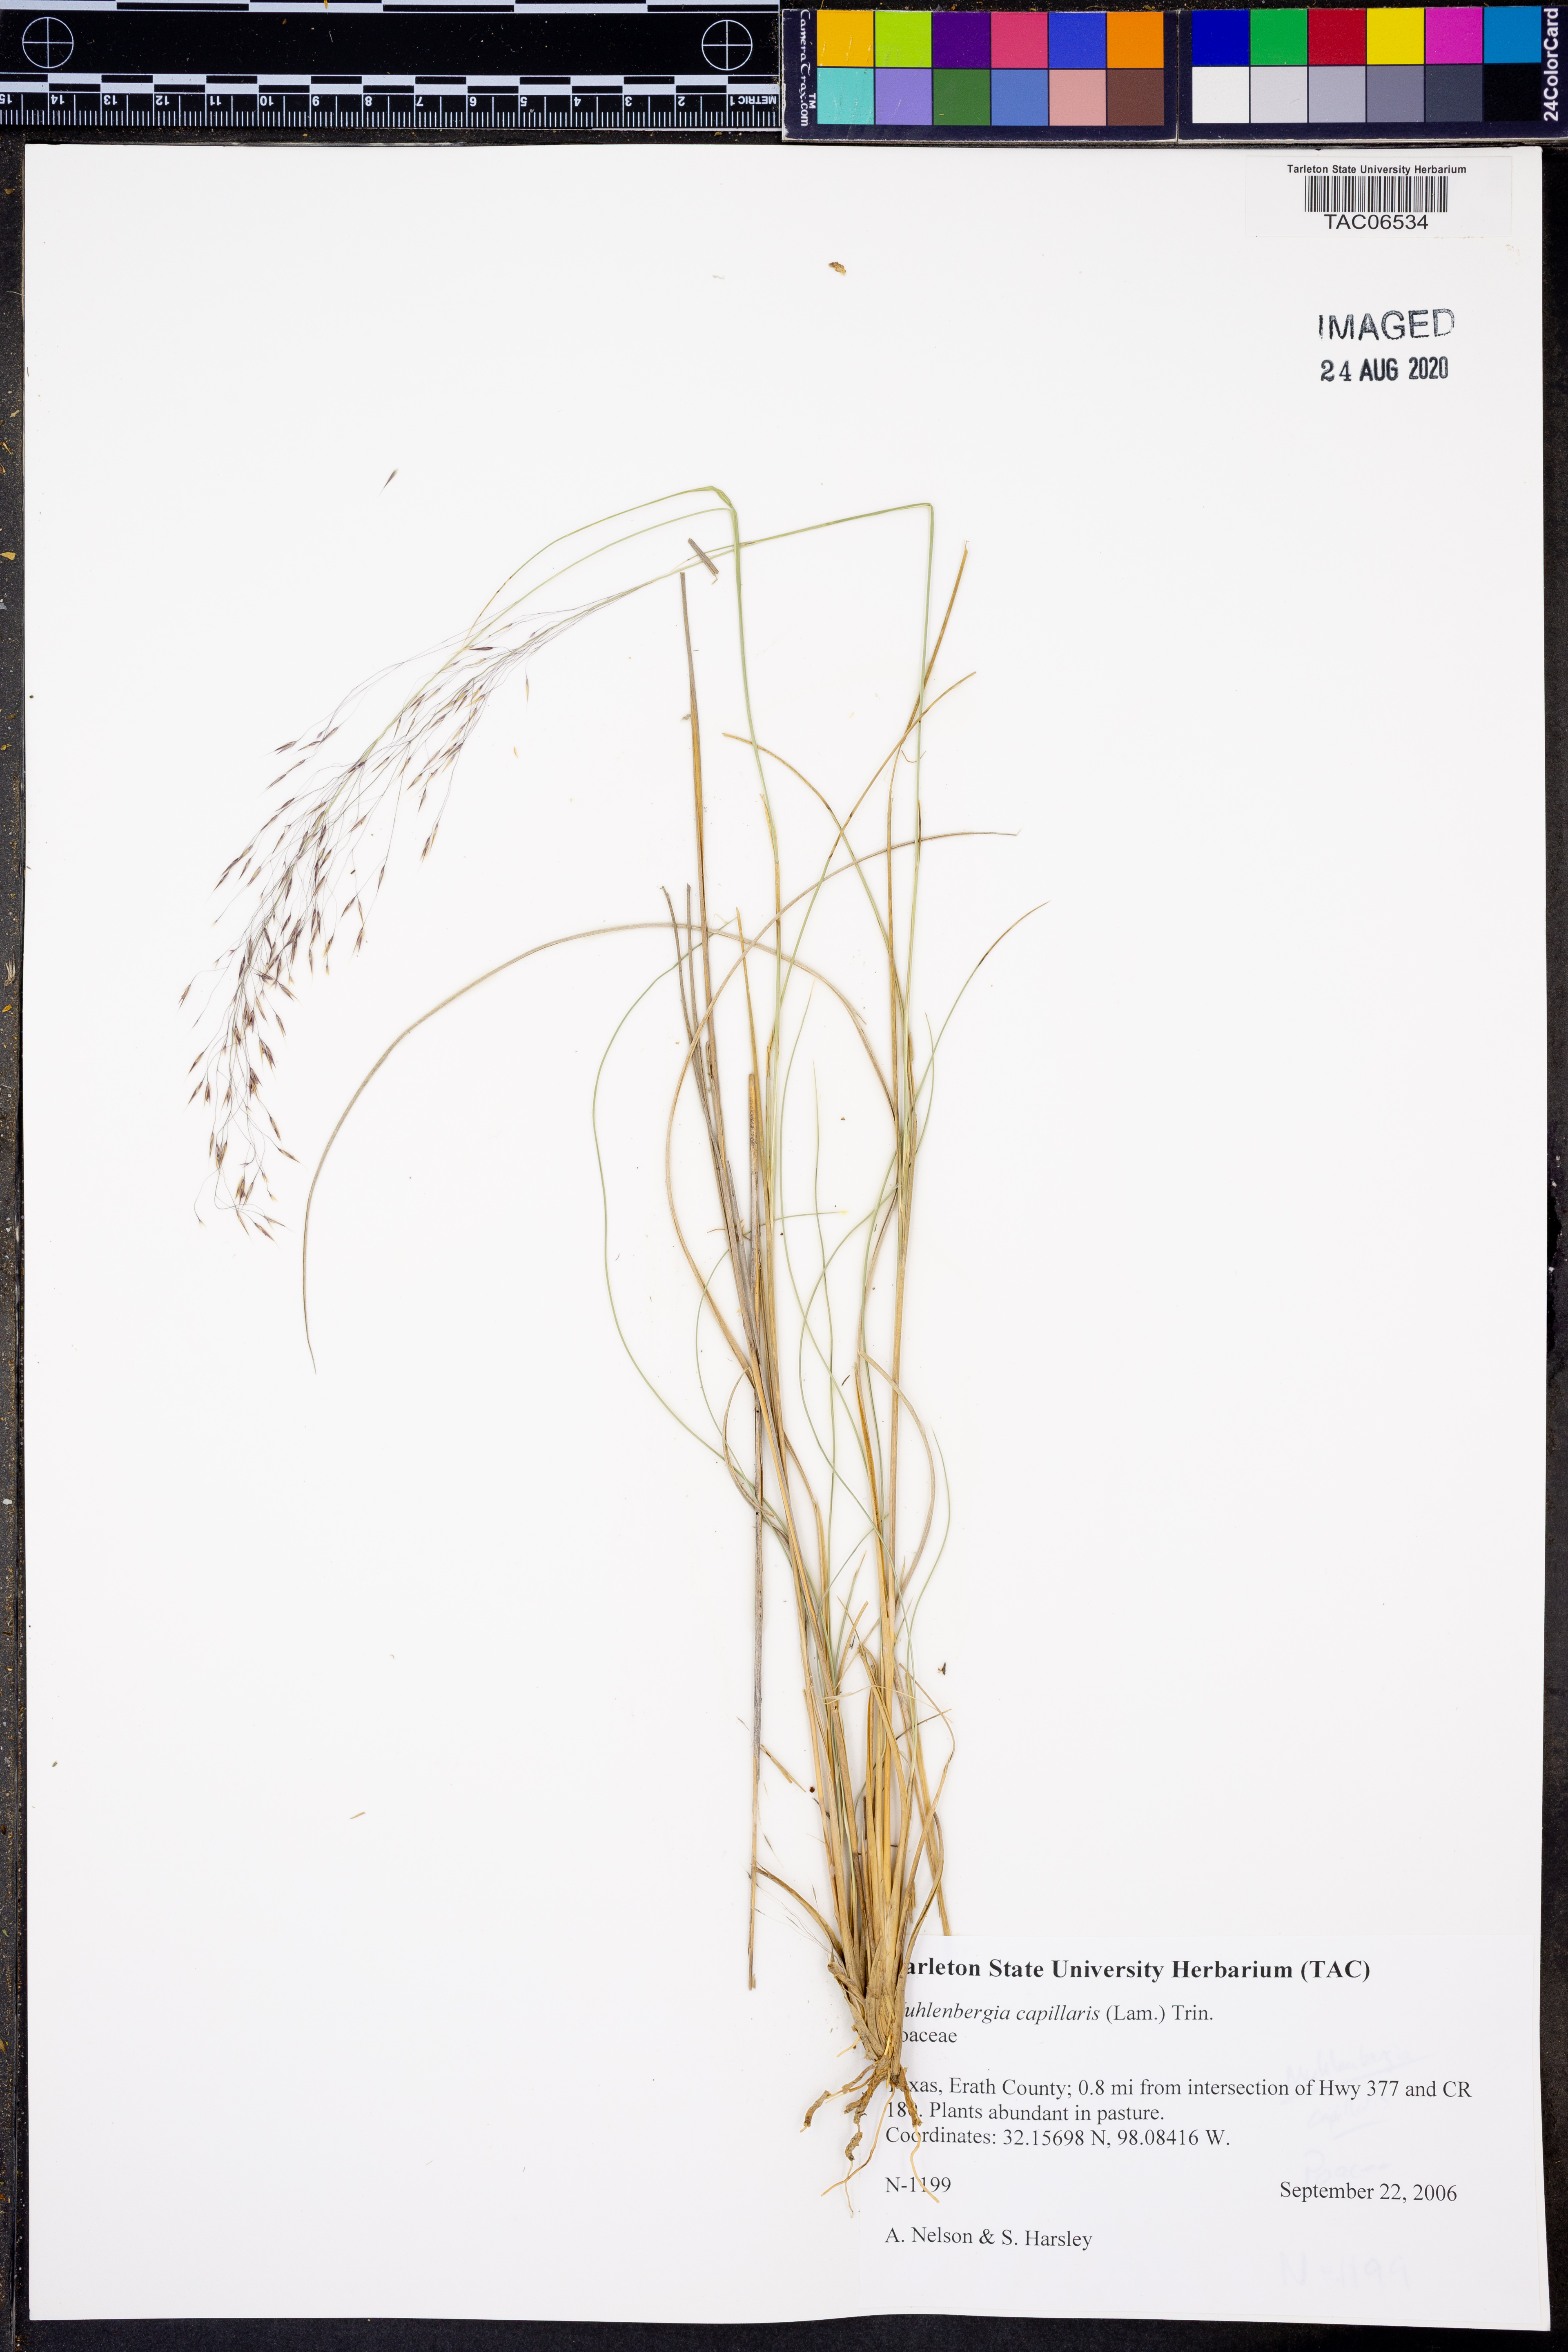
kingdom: Plantae
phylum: Tracheophyta
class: Liliopsida
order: Poales
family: Poaceae
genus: Muhlenbergia
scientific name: Muhlenbergia capillaris
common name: Purple grass
